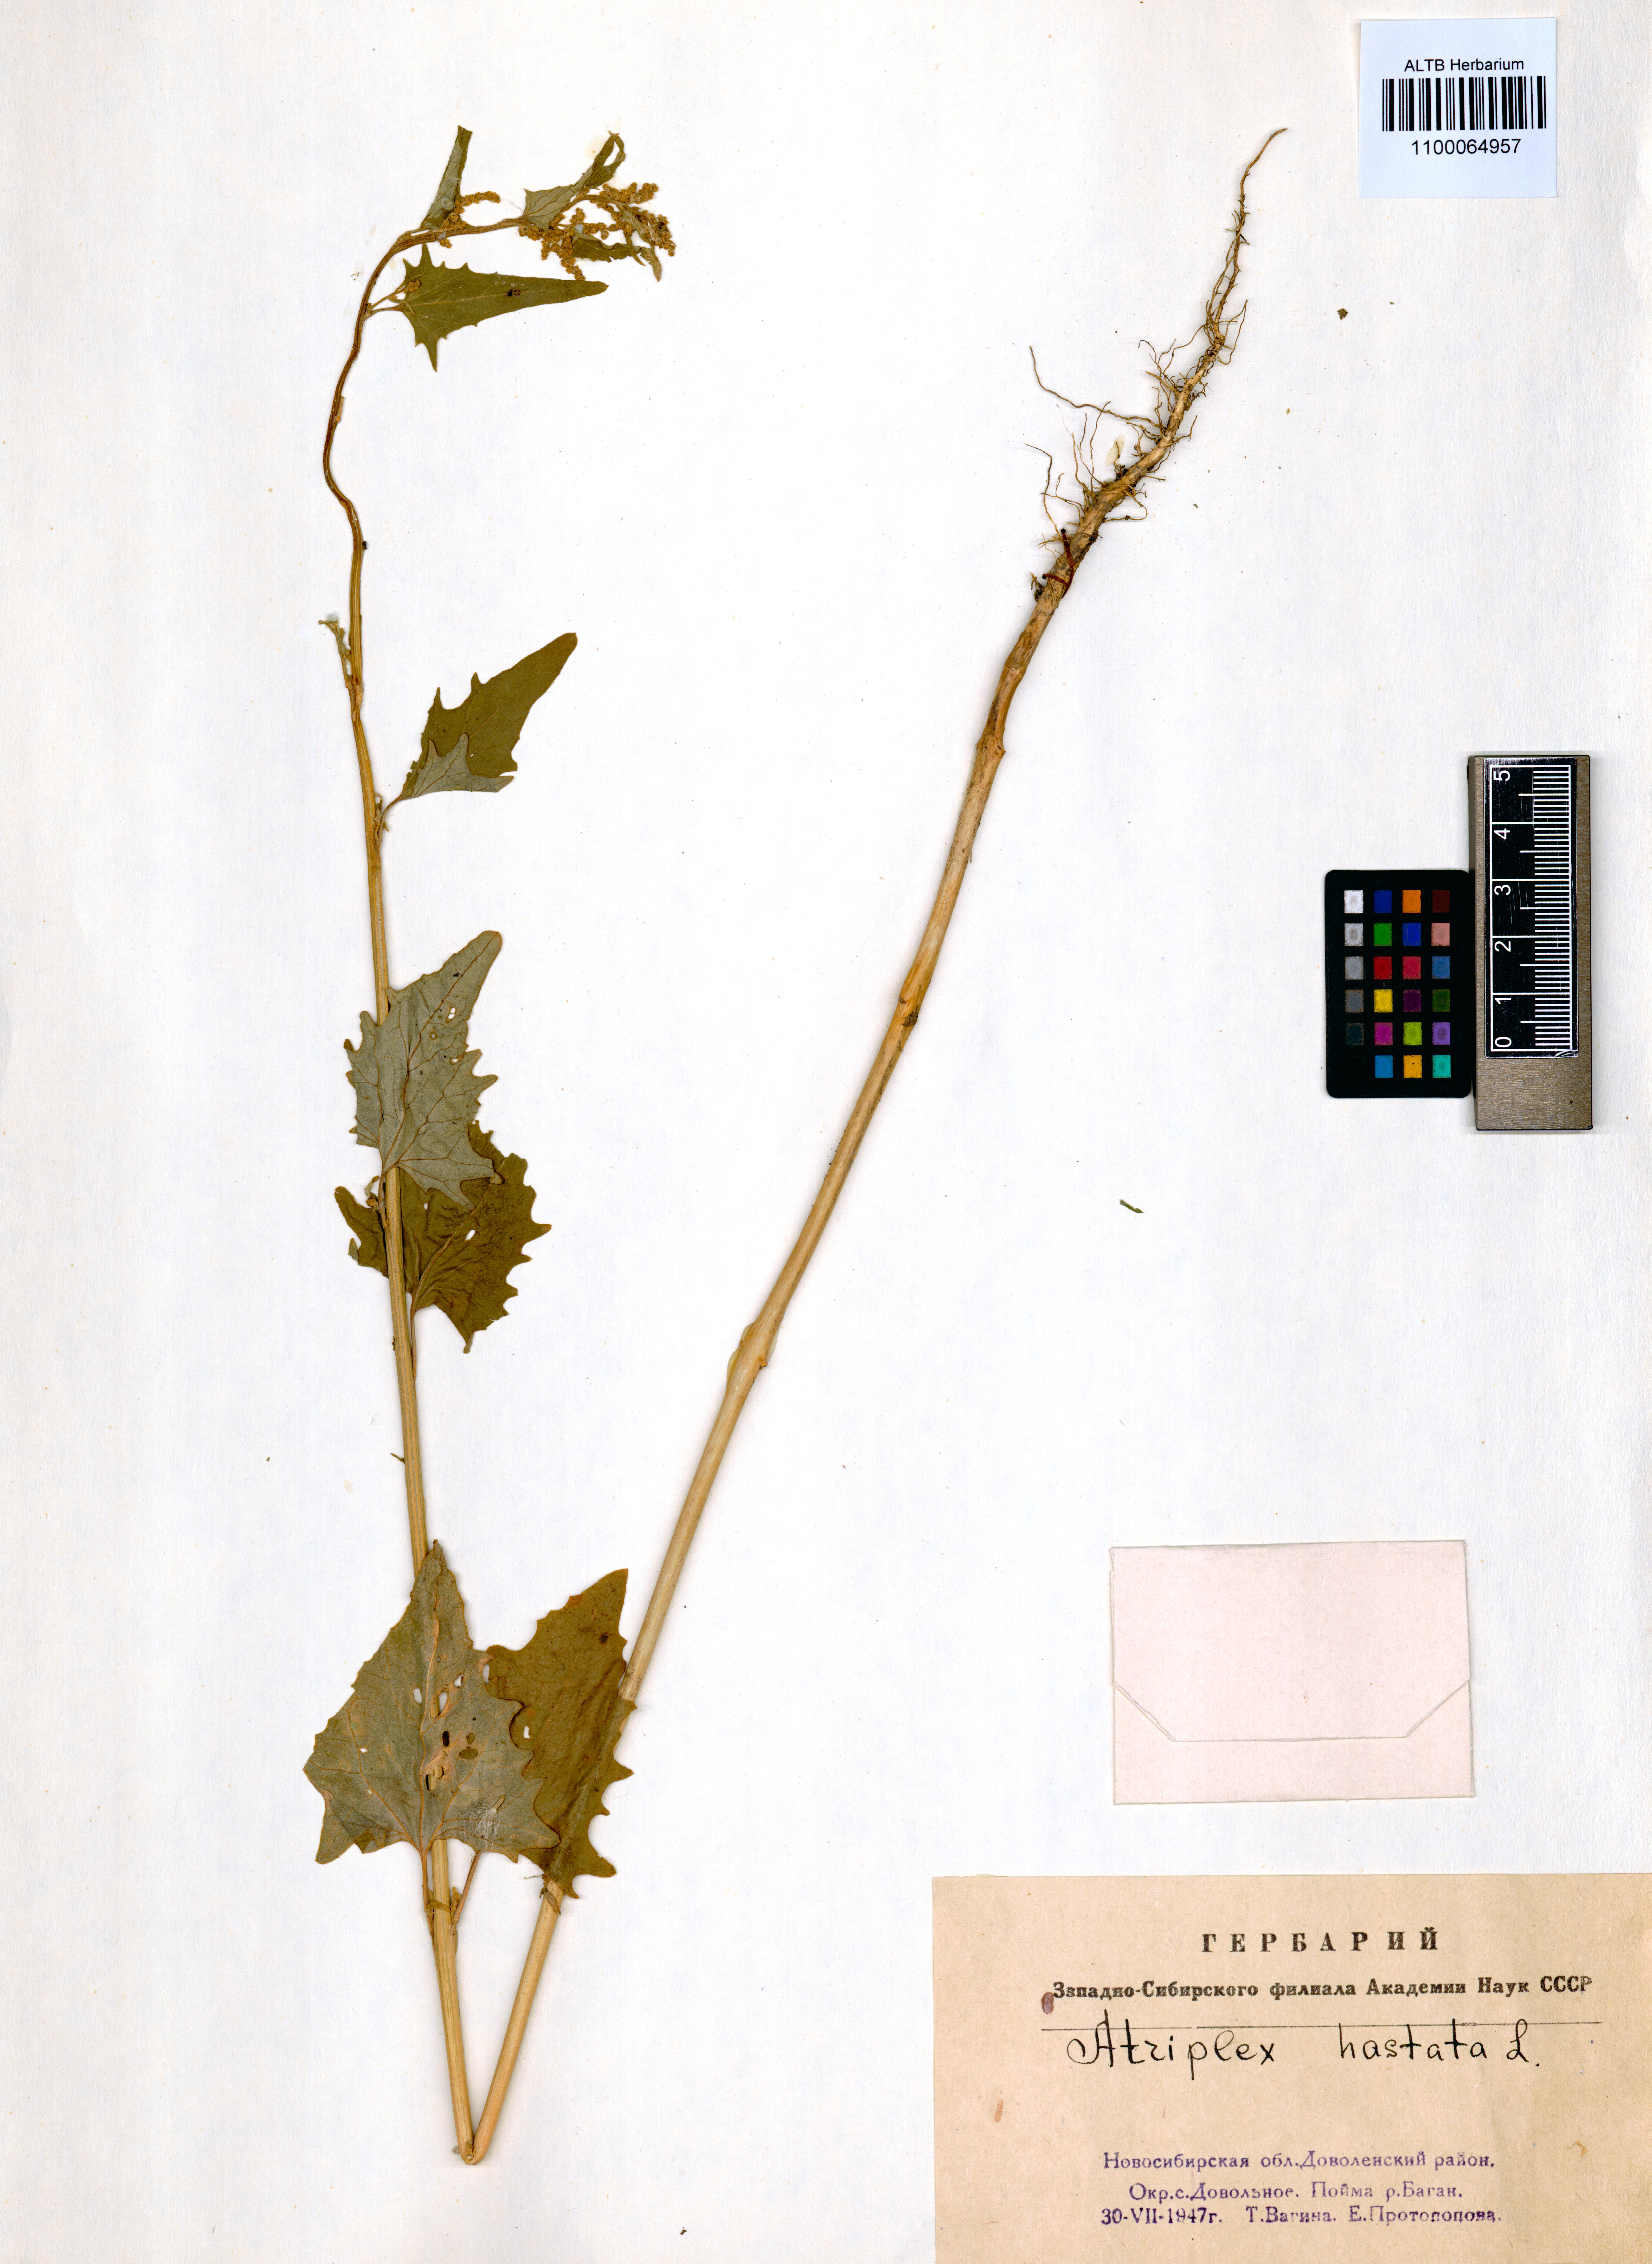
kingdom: Plantae
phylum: Tracheophyta
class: Magnoliopsida
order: Caryophyllales
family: Amaranthaceae
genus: Atriplex
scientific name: Atriplex calotheca
